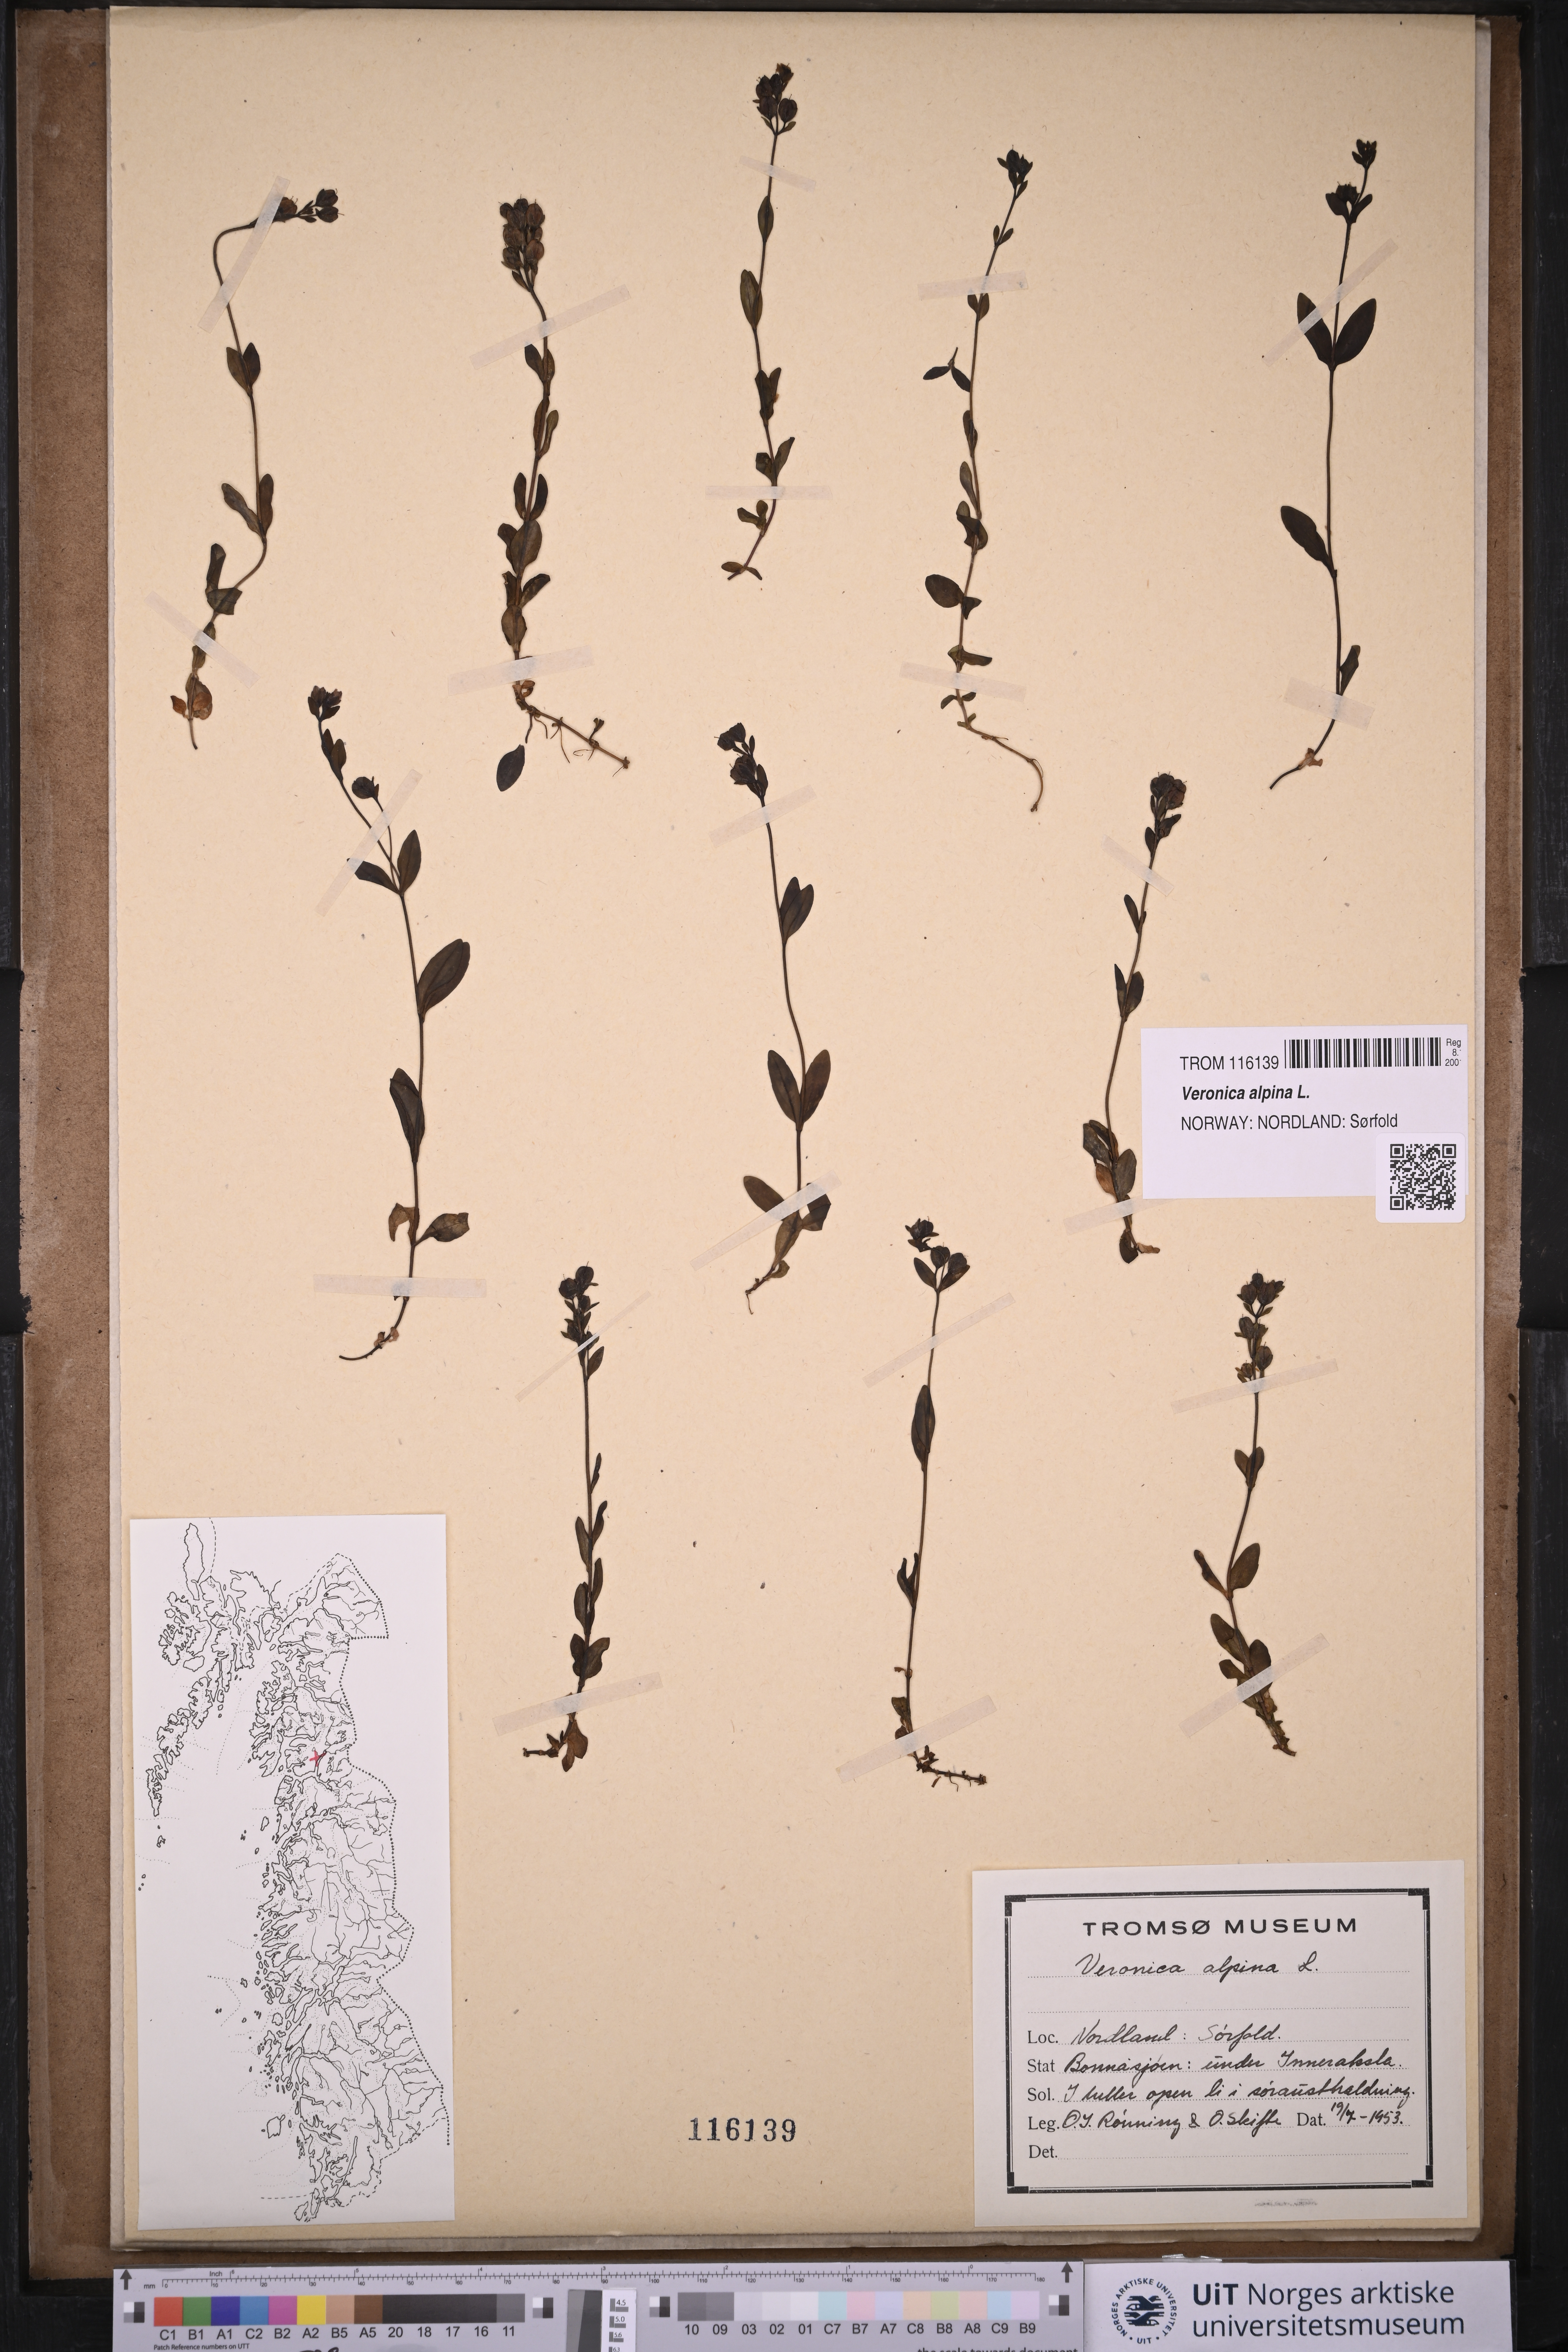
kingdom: Plantae
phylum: Tracheophyta
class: Magnoliopsida
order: Lamiales
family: Plantaginaceae
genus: Veronica
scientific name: Veronica alpina
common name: Alpine speedwell
